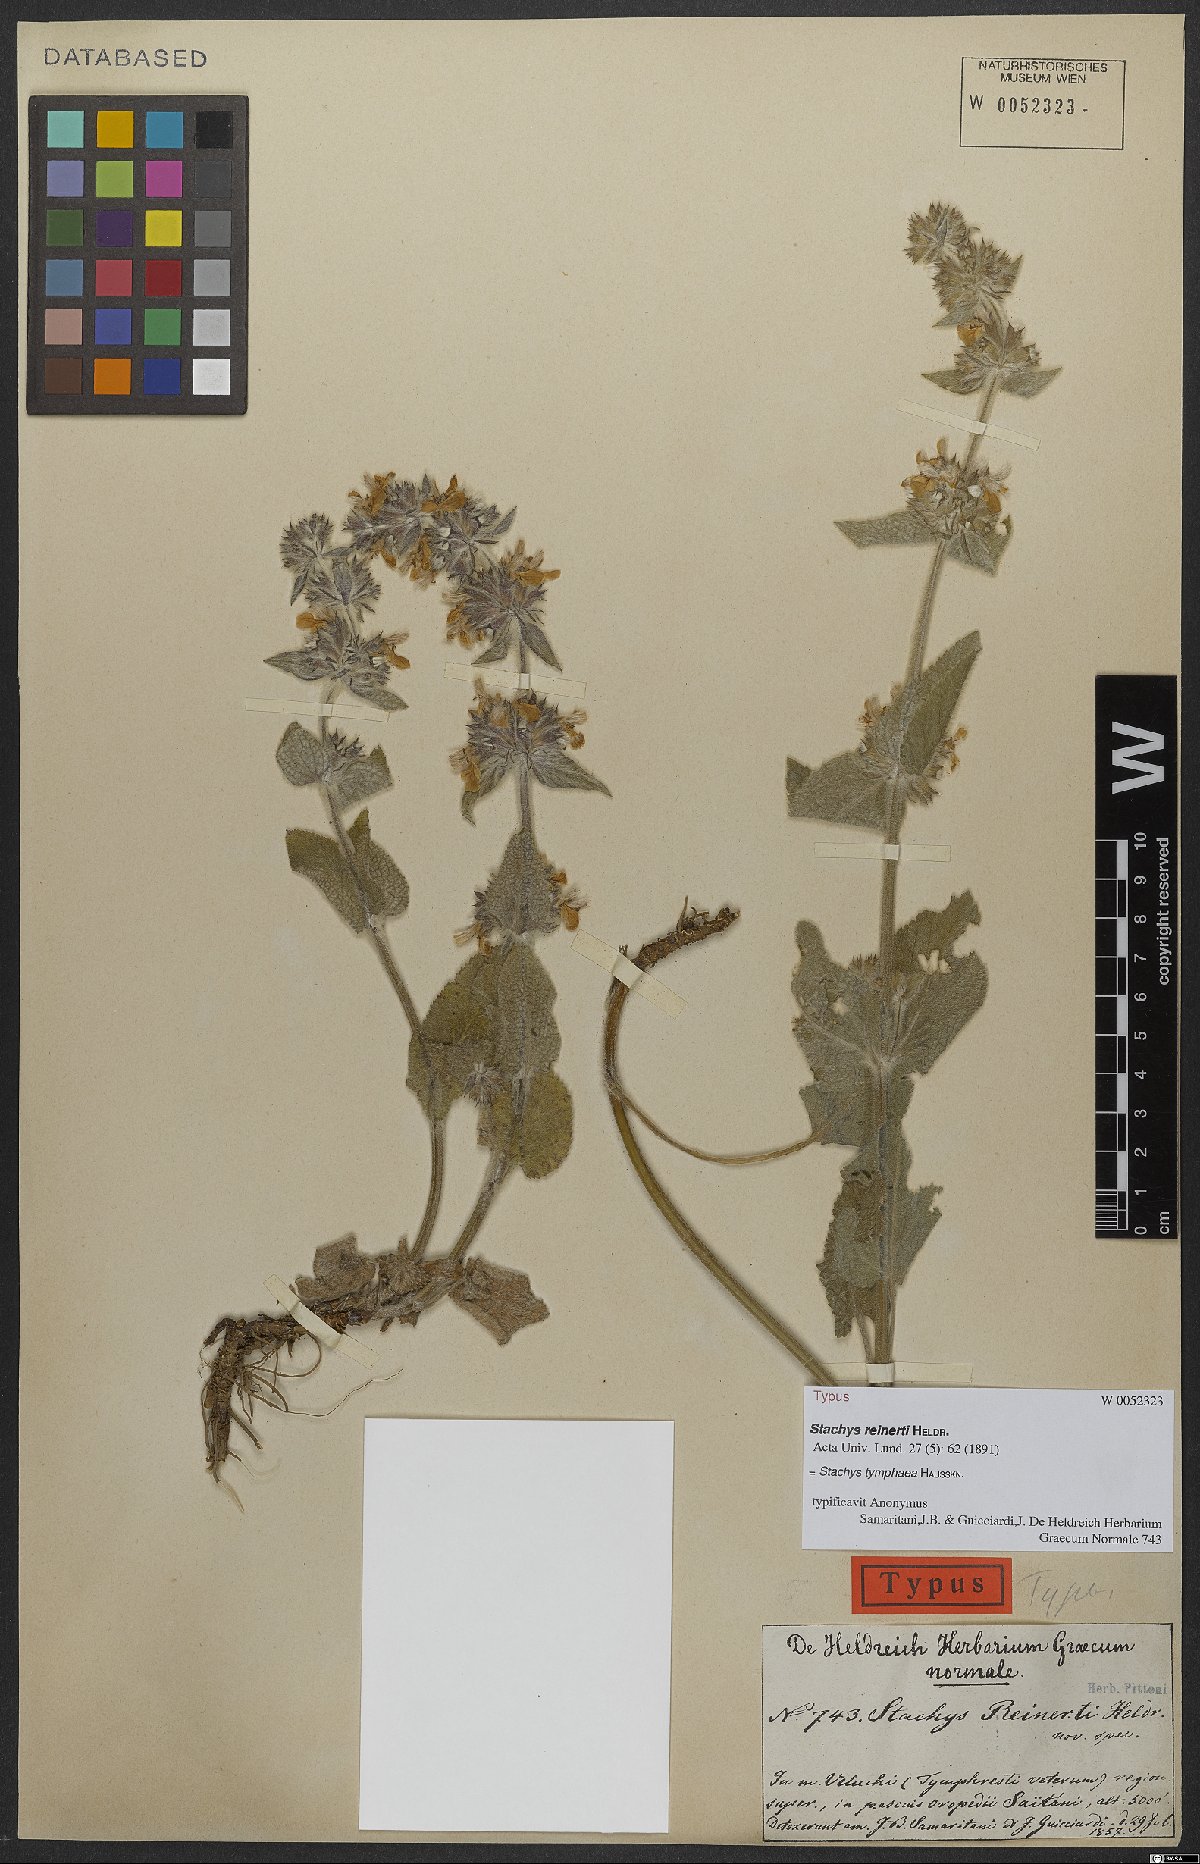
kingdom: Plantae
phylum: Tracheophyta
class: Magnoliopsida
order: Lamiales
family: Lamiaceae
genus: Stachys
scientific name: Stachys tymphaea
